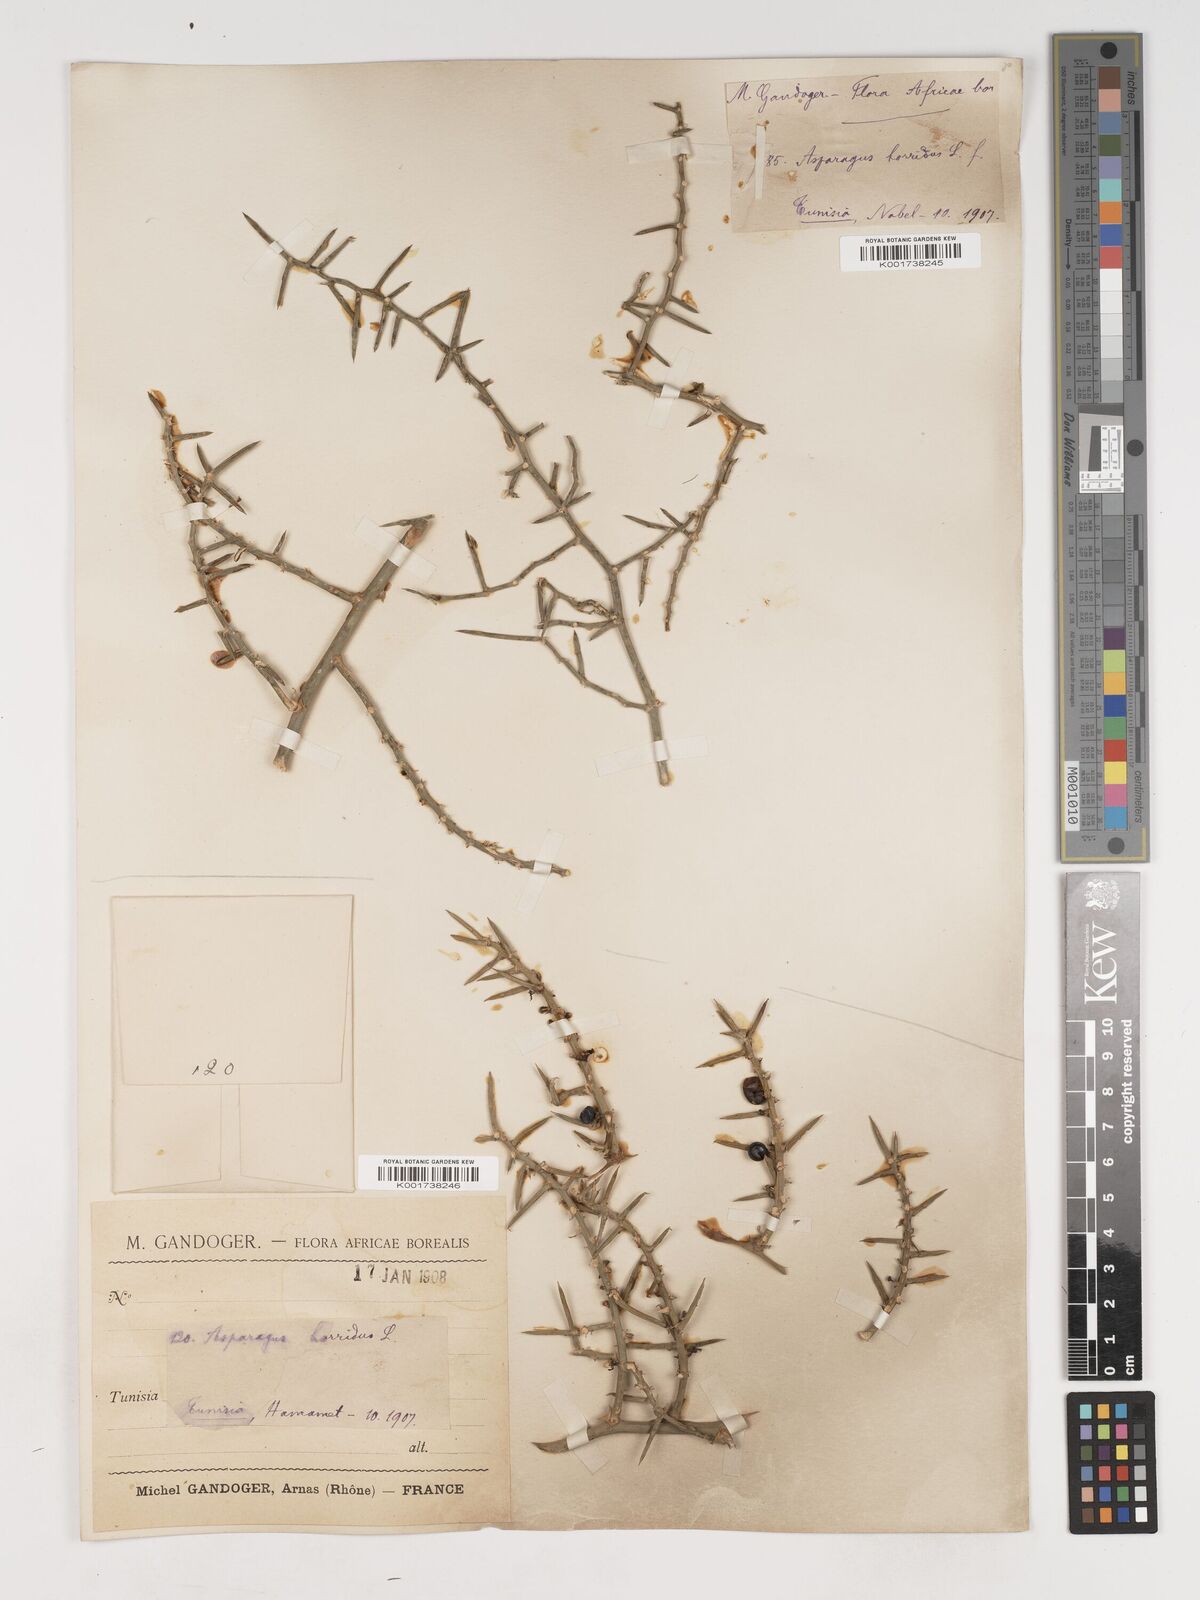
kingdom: Plantae
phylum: Tracheophyta
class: Liliopsida
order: Asparagales
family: Asparagaceae
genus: Asparagus
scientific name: Asparagus horridus
